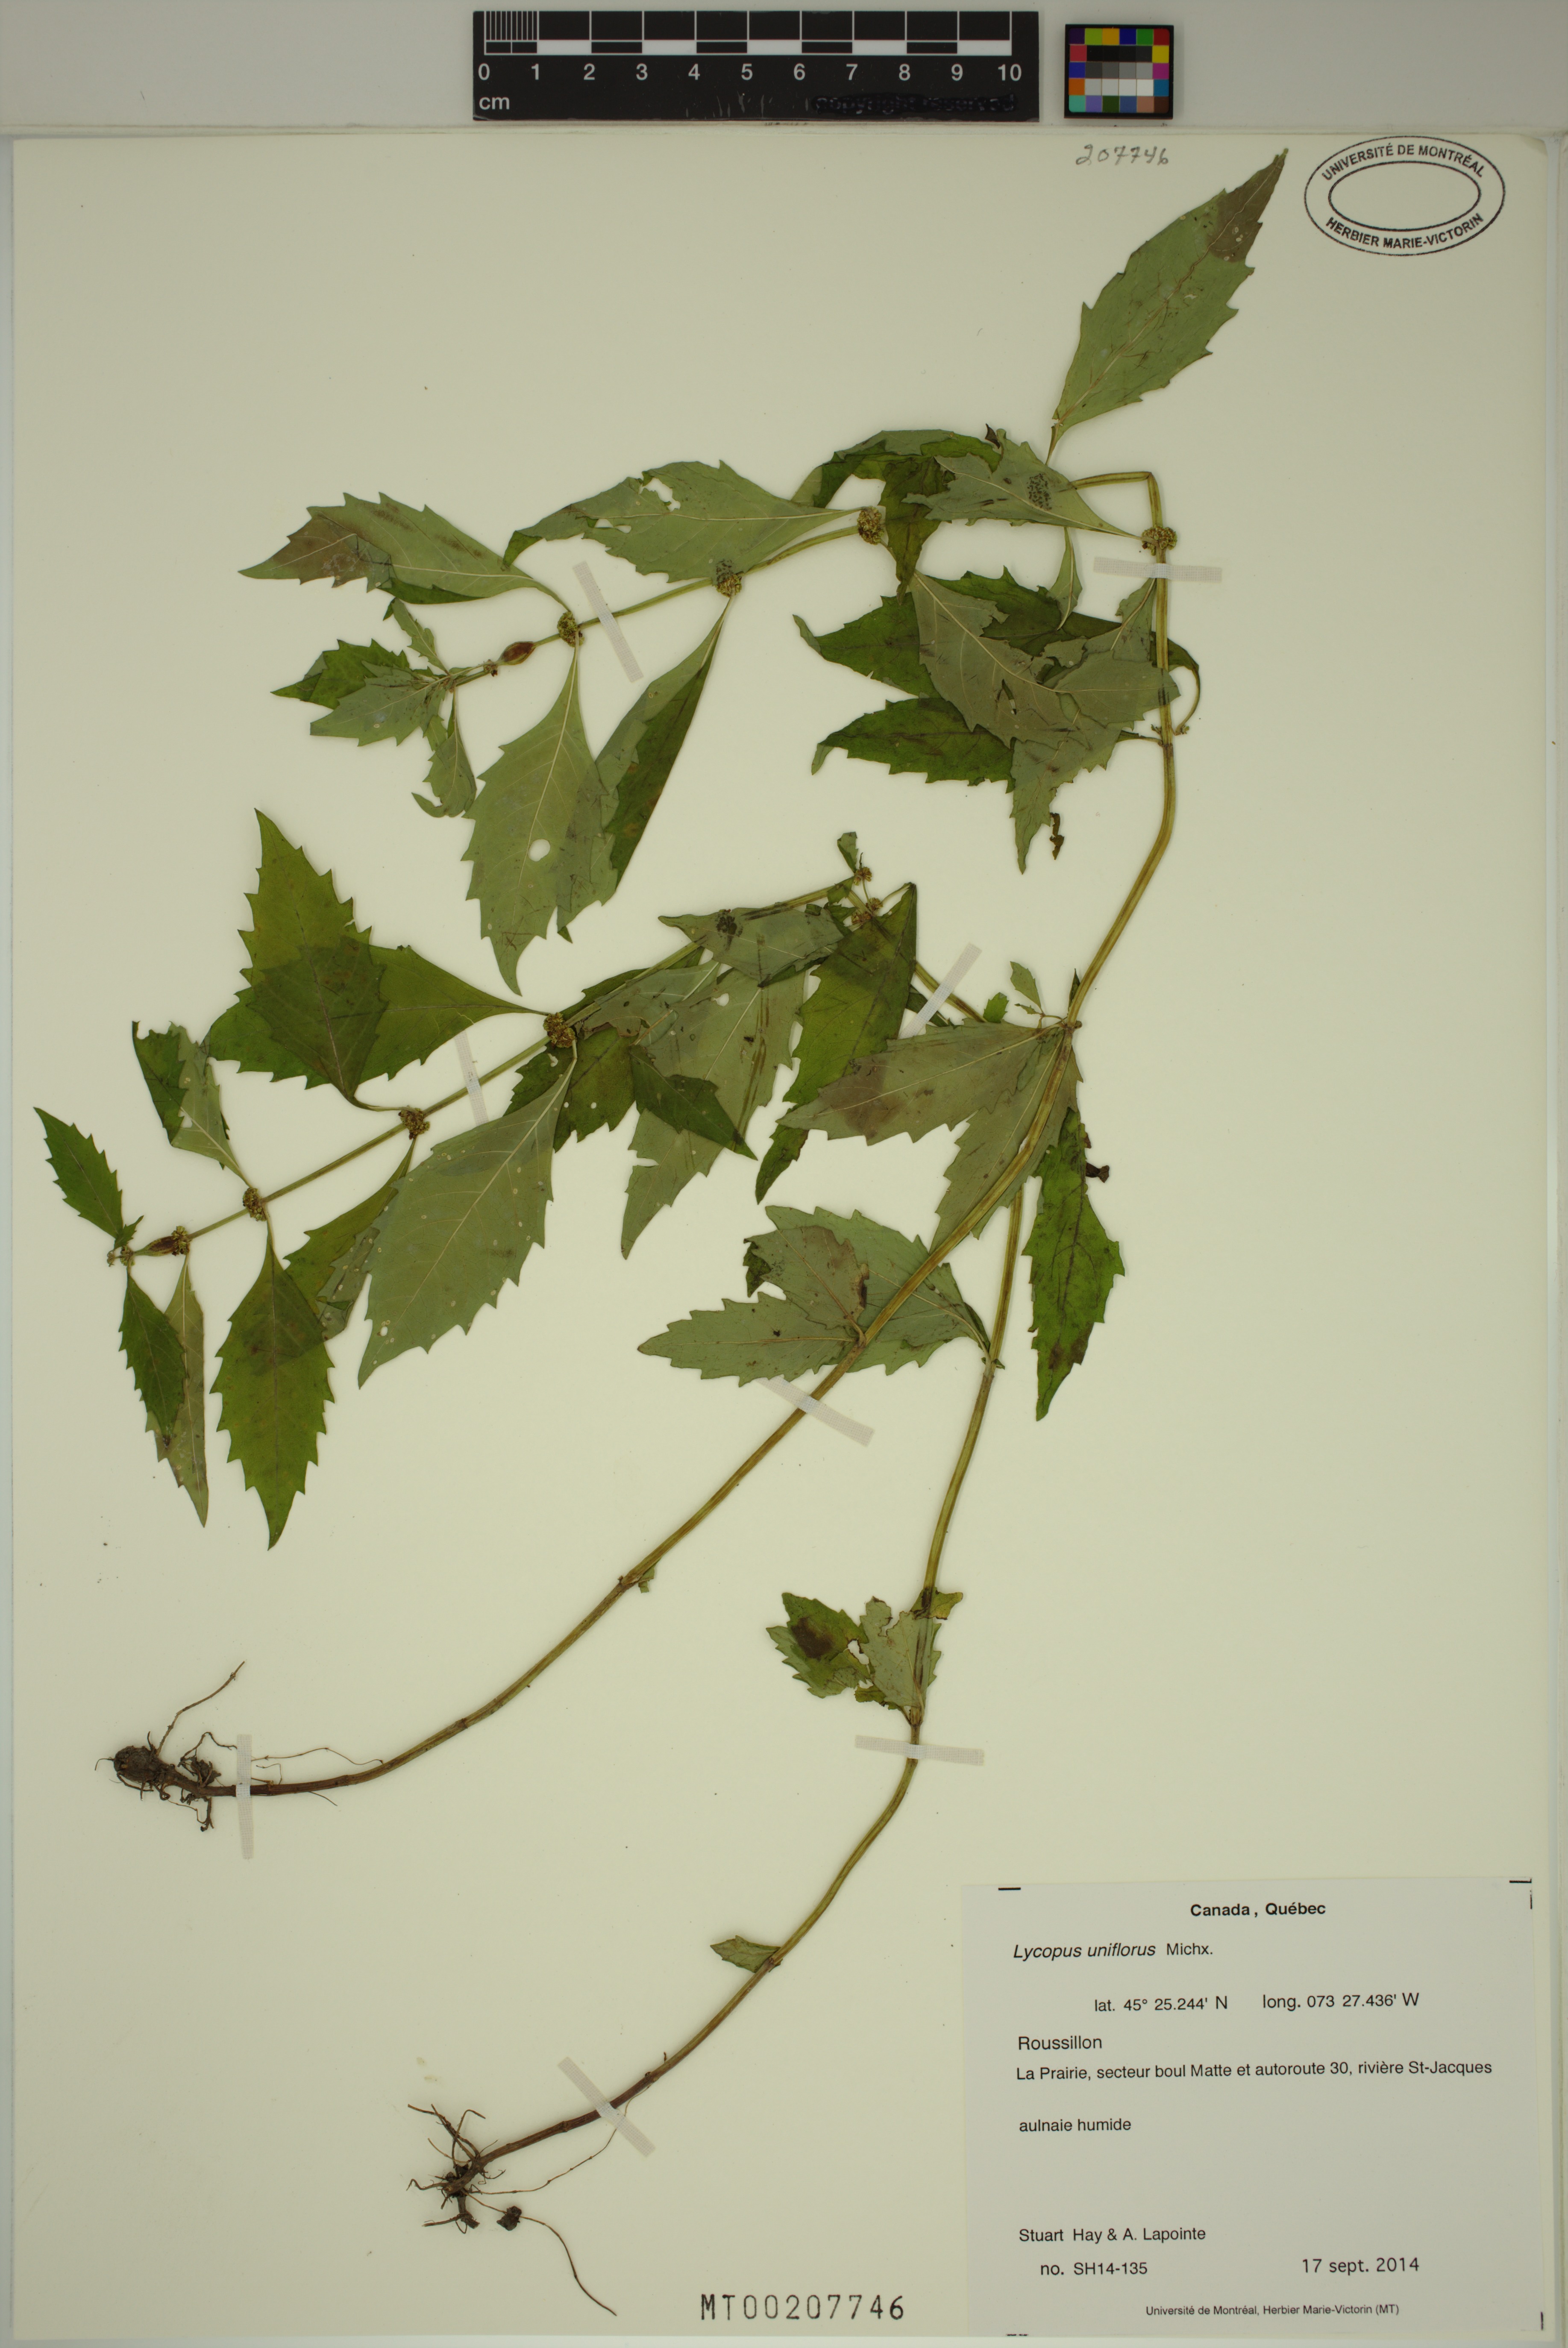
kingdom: Plantae
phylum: Tracheophyta
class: Magnoliopsida
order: Lamiales
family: Lamiaceae
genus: Lycopus
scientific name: Lycopus uniflorus
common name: Northern bugleweed
